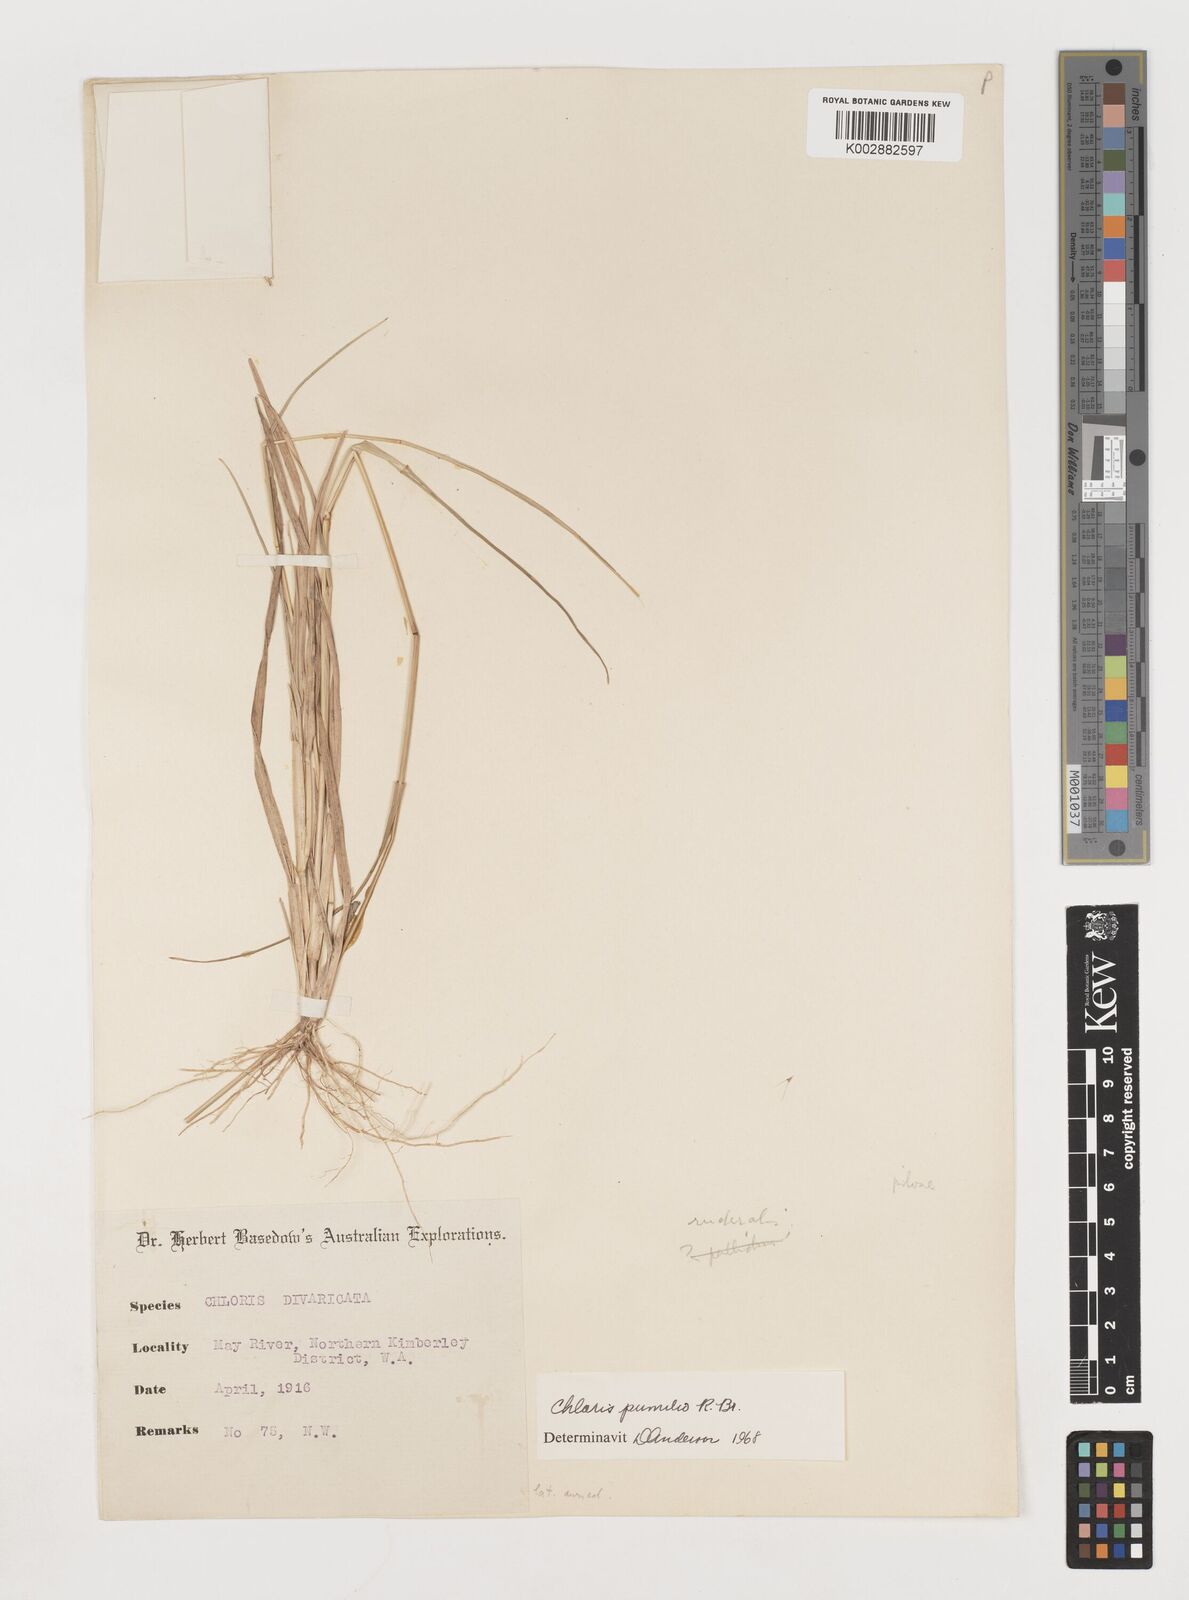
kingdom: Plantae
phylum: Tracheophyta
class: Liliopsida
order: Poales
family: Poaceae
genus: Chloris
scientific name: Chloris pumilio
